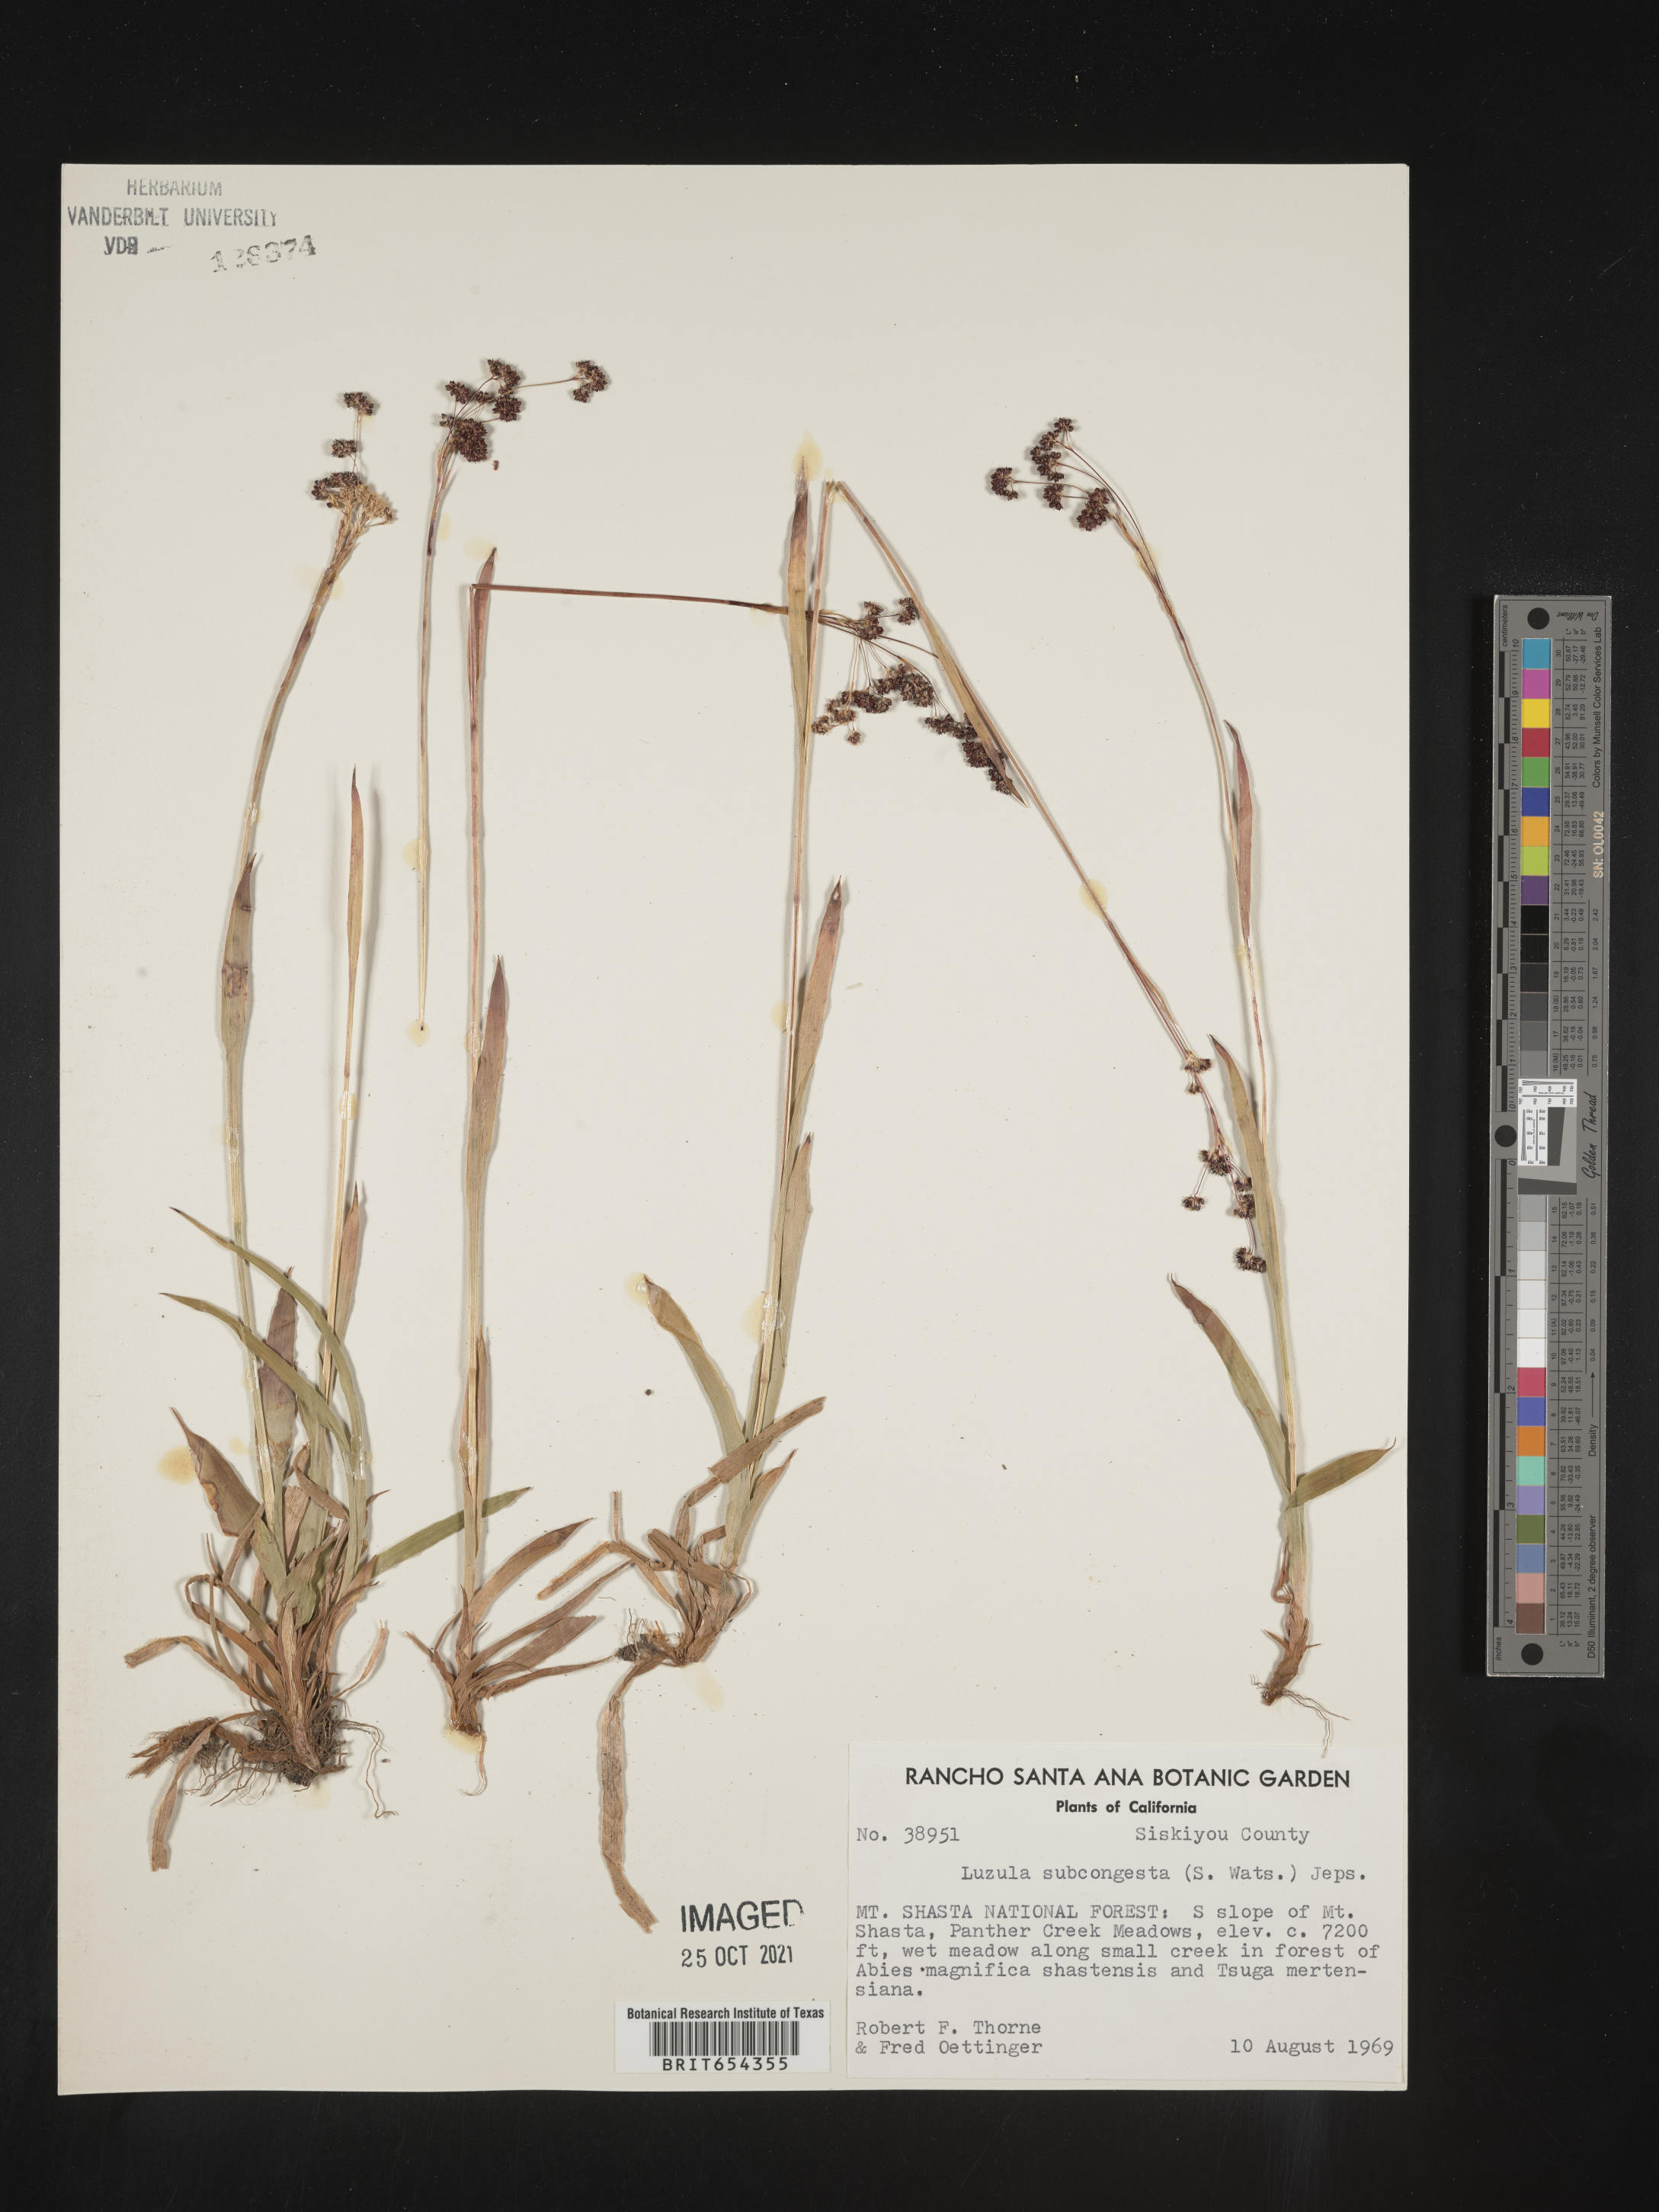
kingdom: Plantae
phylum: Tracheophyta
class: Liliopsida
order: Poales
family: Juncaceae
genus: Luzula
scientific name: Luzula
